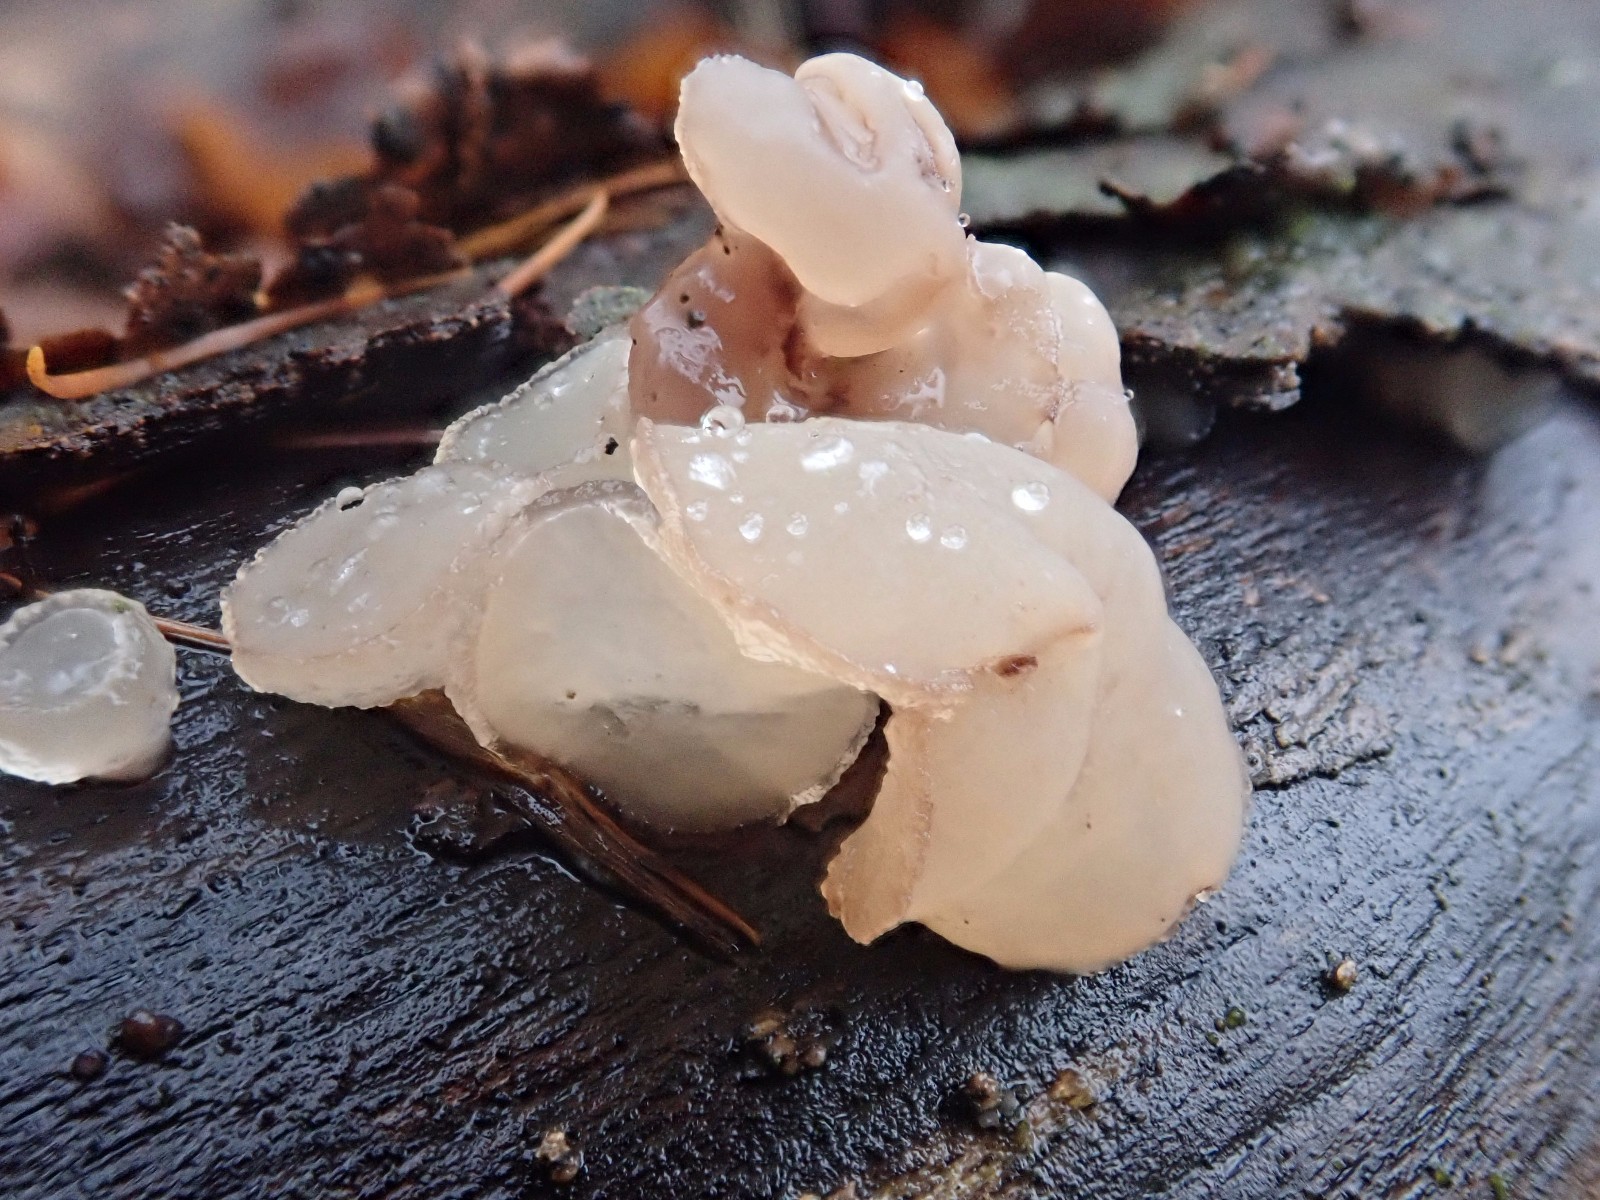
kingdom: Fungi
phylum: Ascomycota
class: Leotiomycetes
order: Helotiales
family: Gelatinodiscaceae
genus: Neobulgaria
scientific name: Neobulgaria pura
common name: bleg bævreskive
